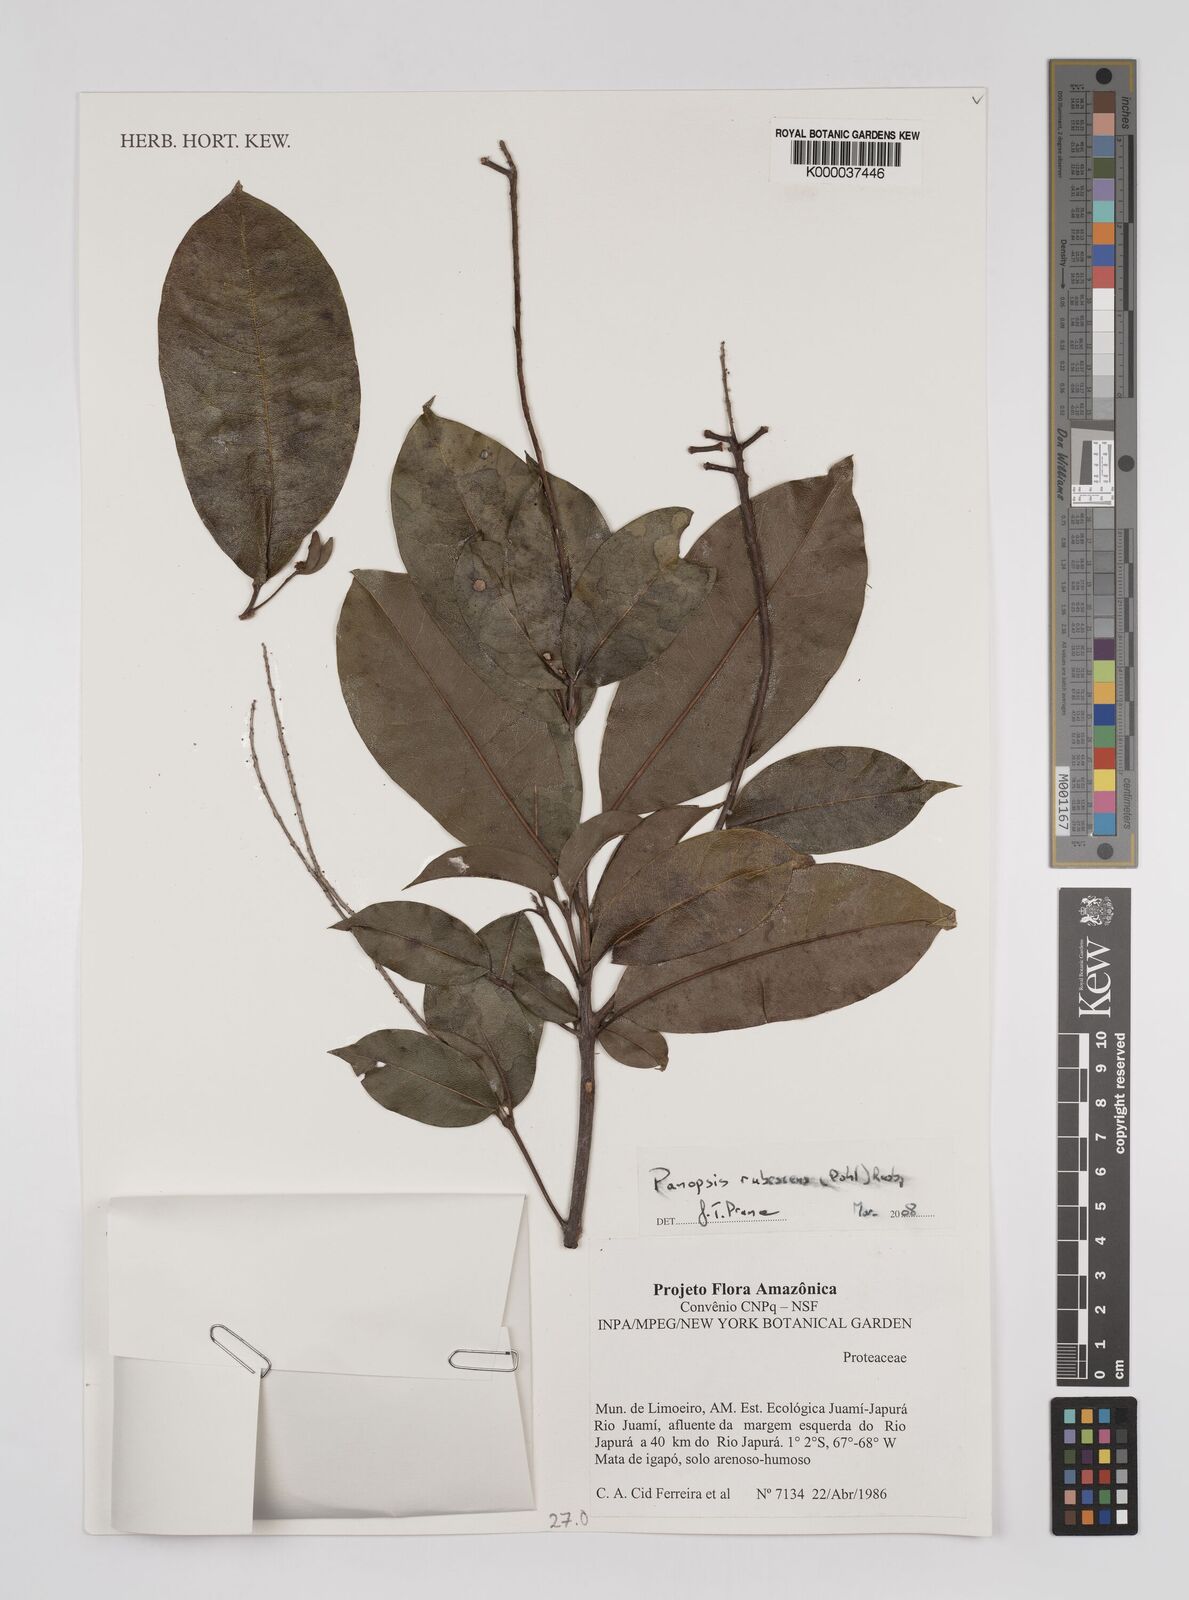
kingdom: Plantae
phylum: Tracheophyta
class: Magnoliopsida
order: Proteales
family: Proteaceae
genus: Panopsis
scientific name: Panopsis
